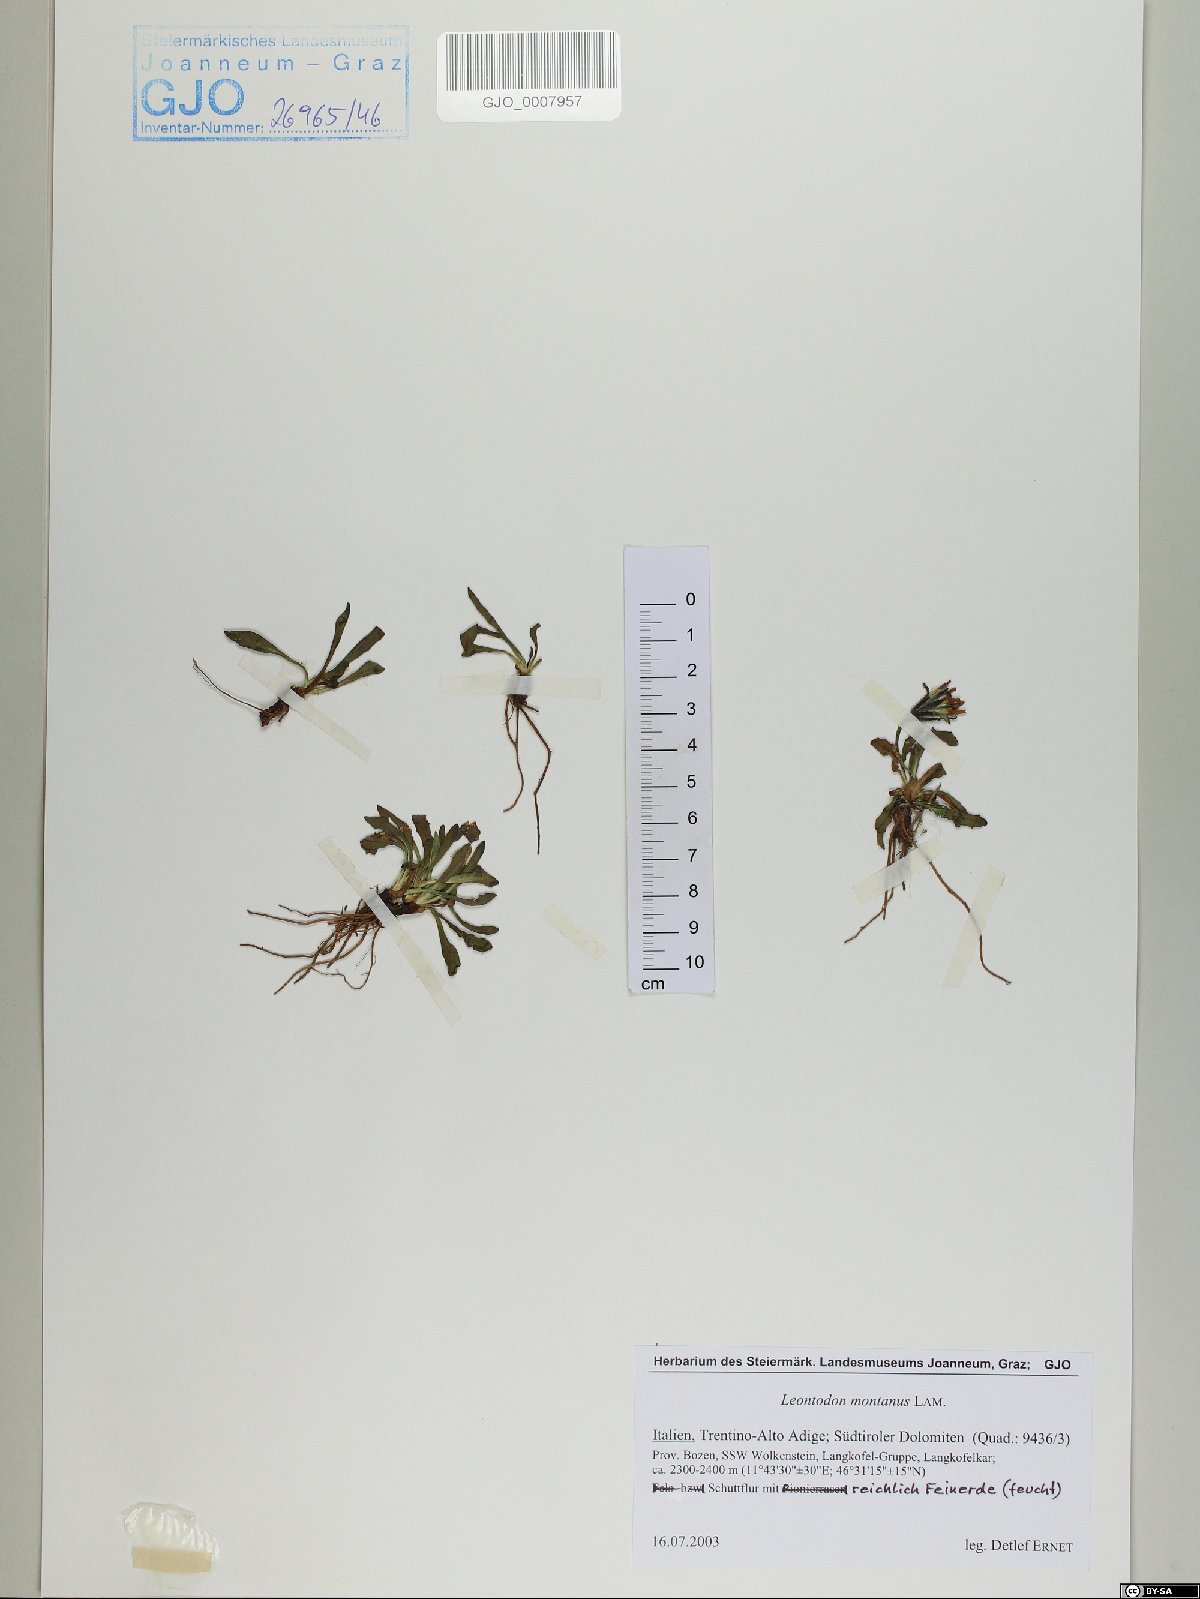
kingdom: Plantae
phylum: Tracheophyta
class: Magnoliopsida
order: Asterales
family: Asteraceae
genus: Scorzoneroides
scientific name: Scorzoneroides montana
